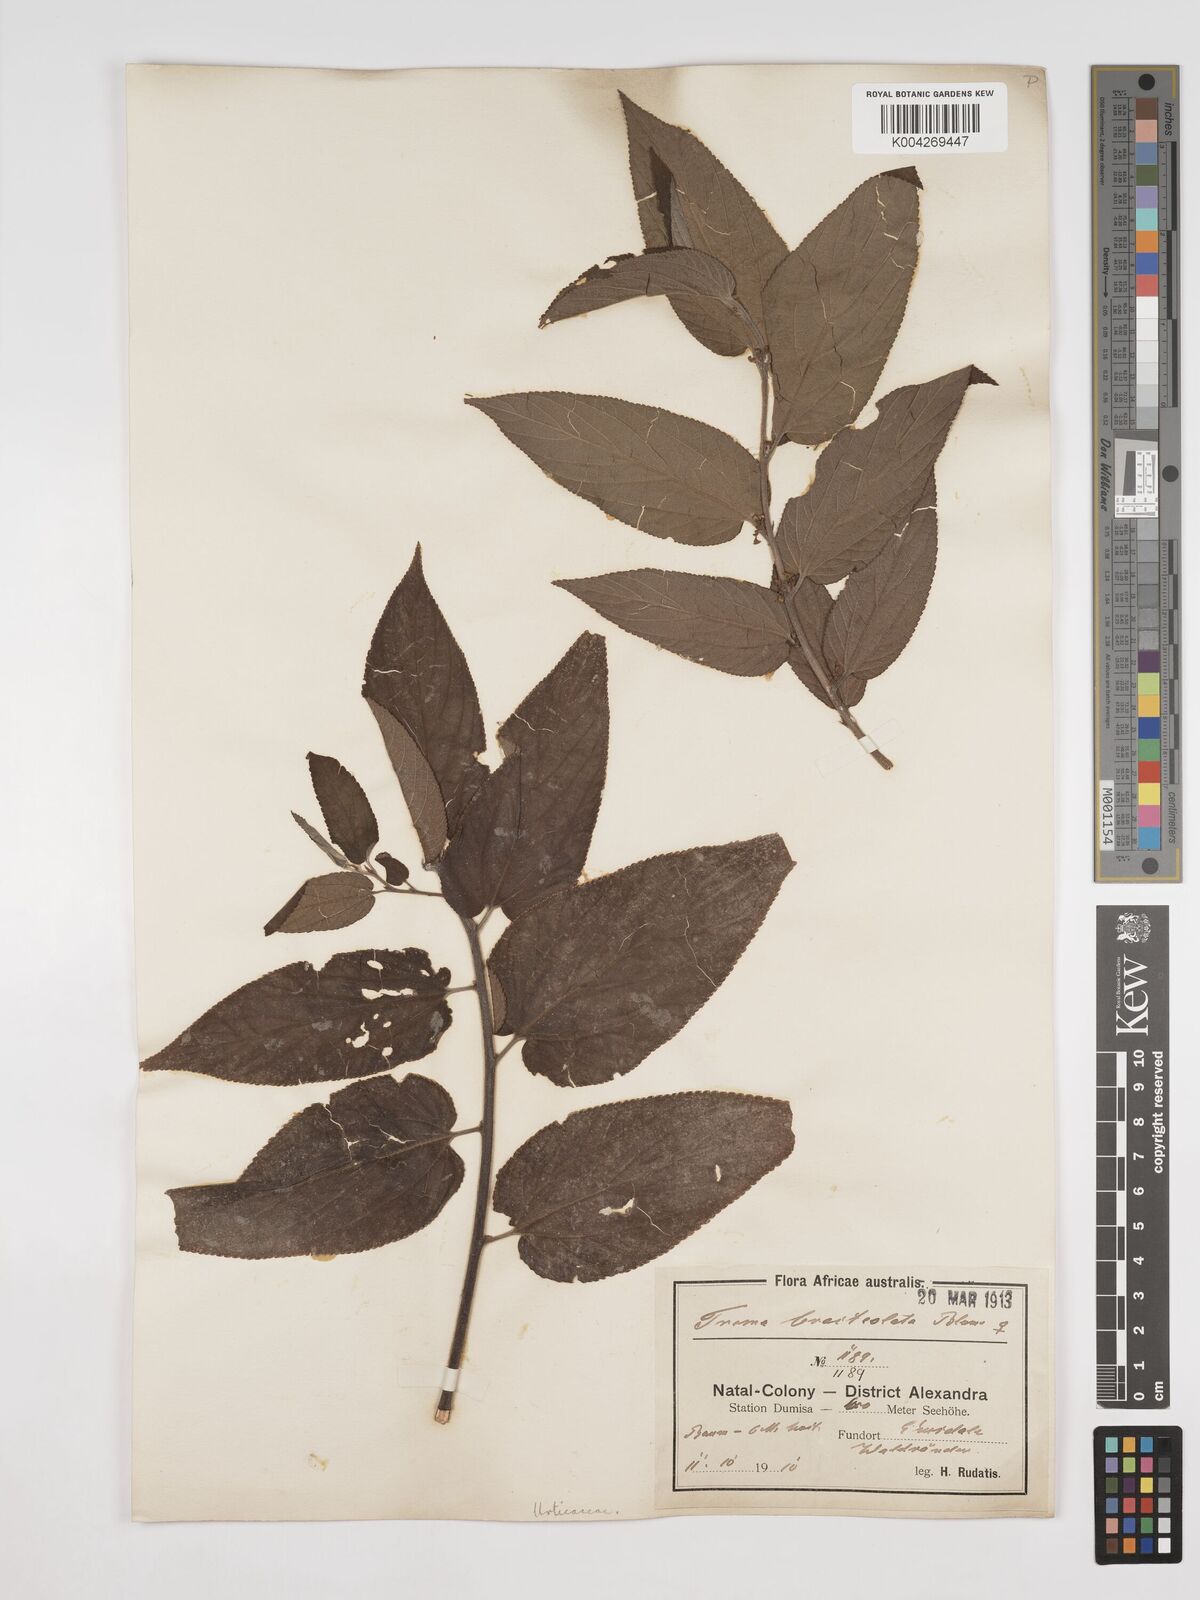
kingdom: Plantae
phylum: Tracheophyta
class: Magnoliopsida
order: Rosales
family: Cannabaceae
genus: Trema
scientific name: Trema orientale
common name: Indian charcoal tree
